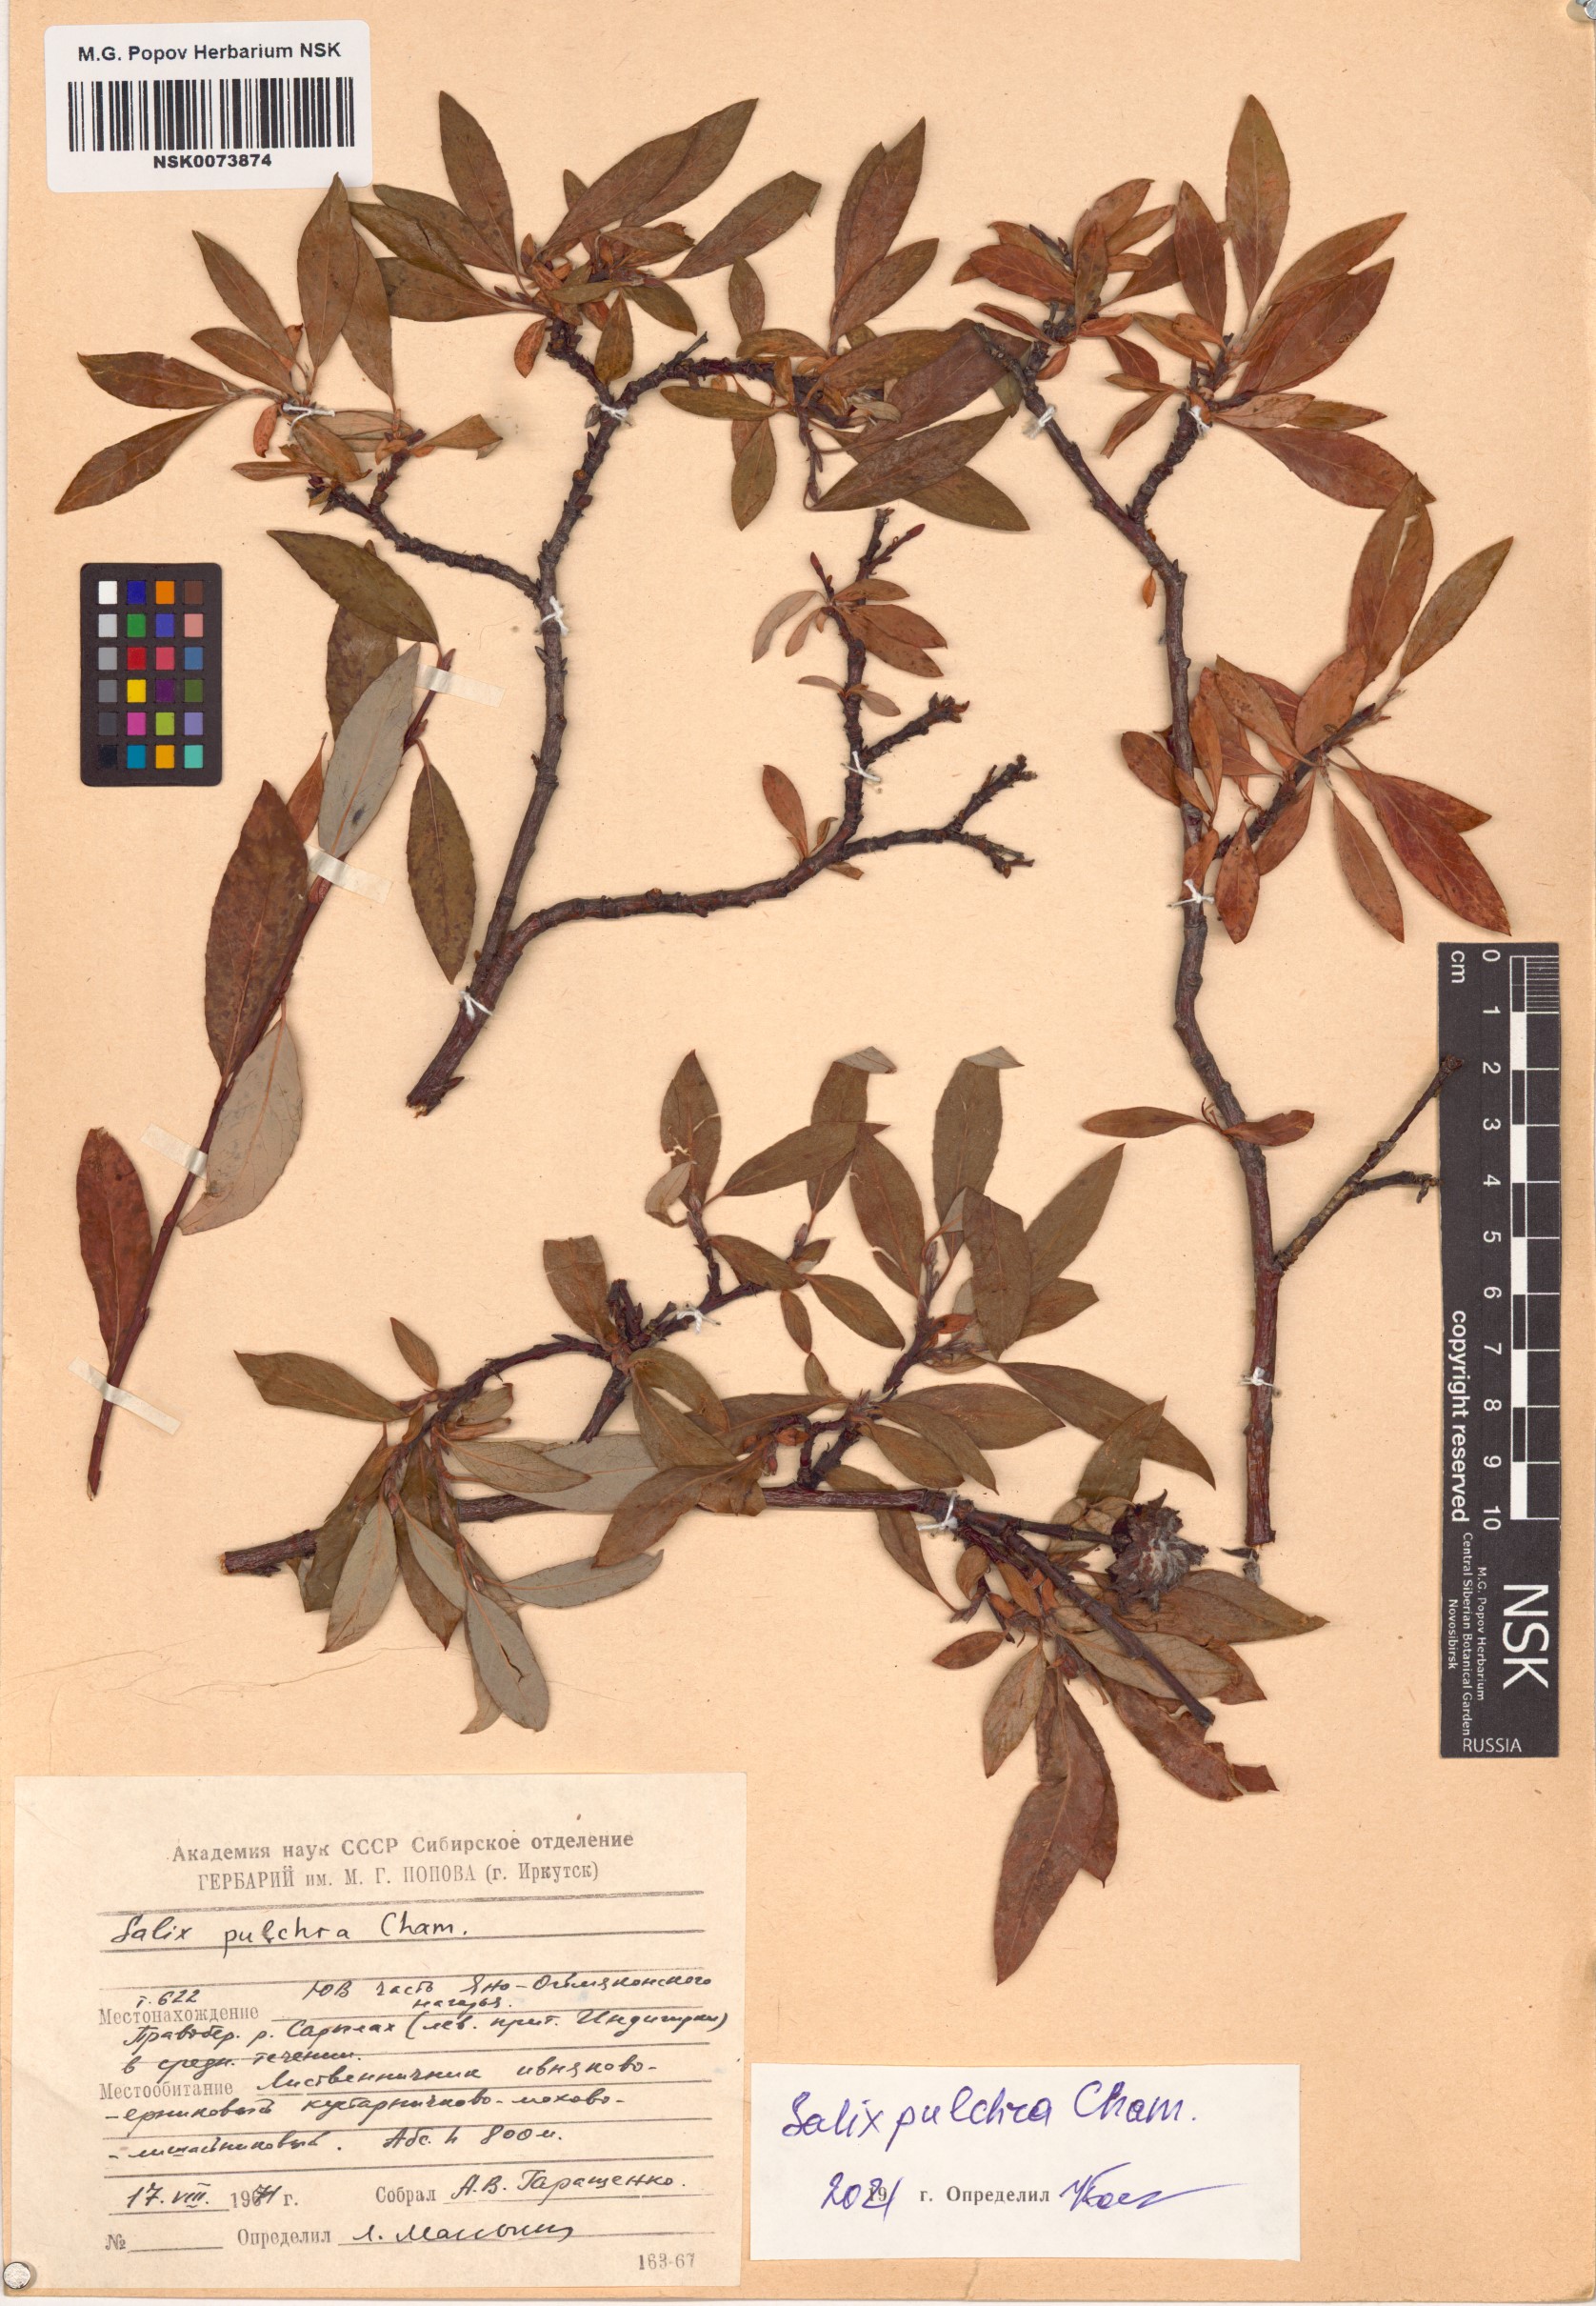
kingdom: Plantae
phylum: Tracheophyta
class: Magnoliopsida
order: Malpighiales
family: Salicaceae
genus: Salix
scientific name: Salix pulchra
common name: Diamond-leaved willow
